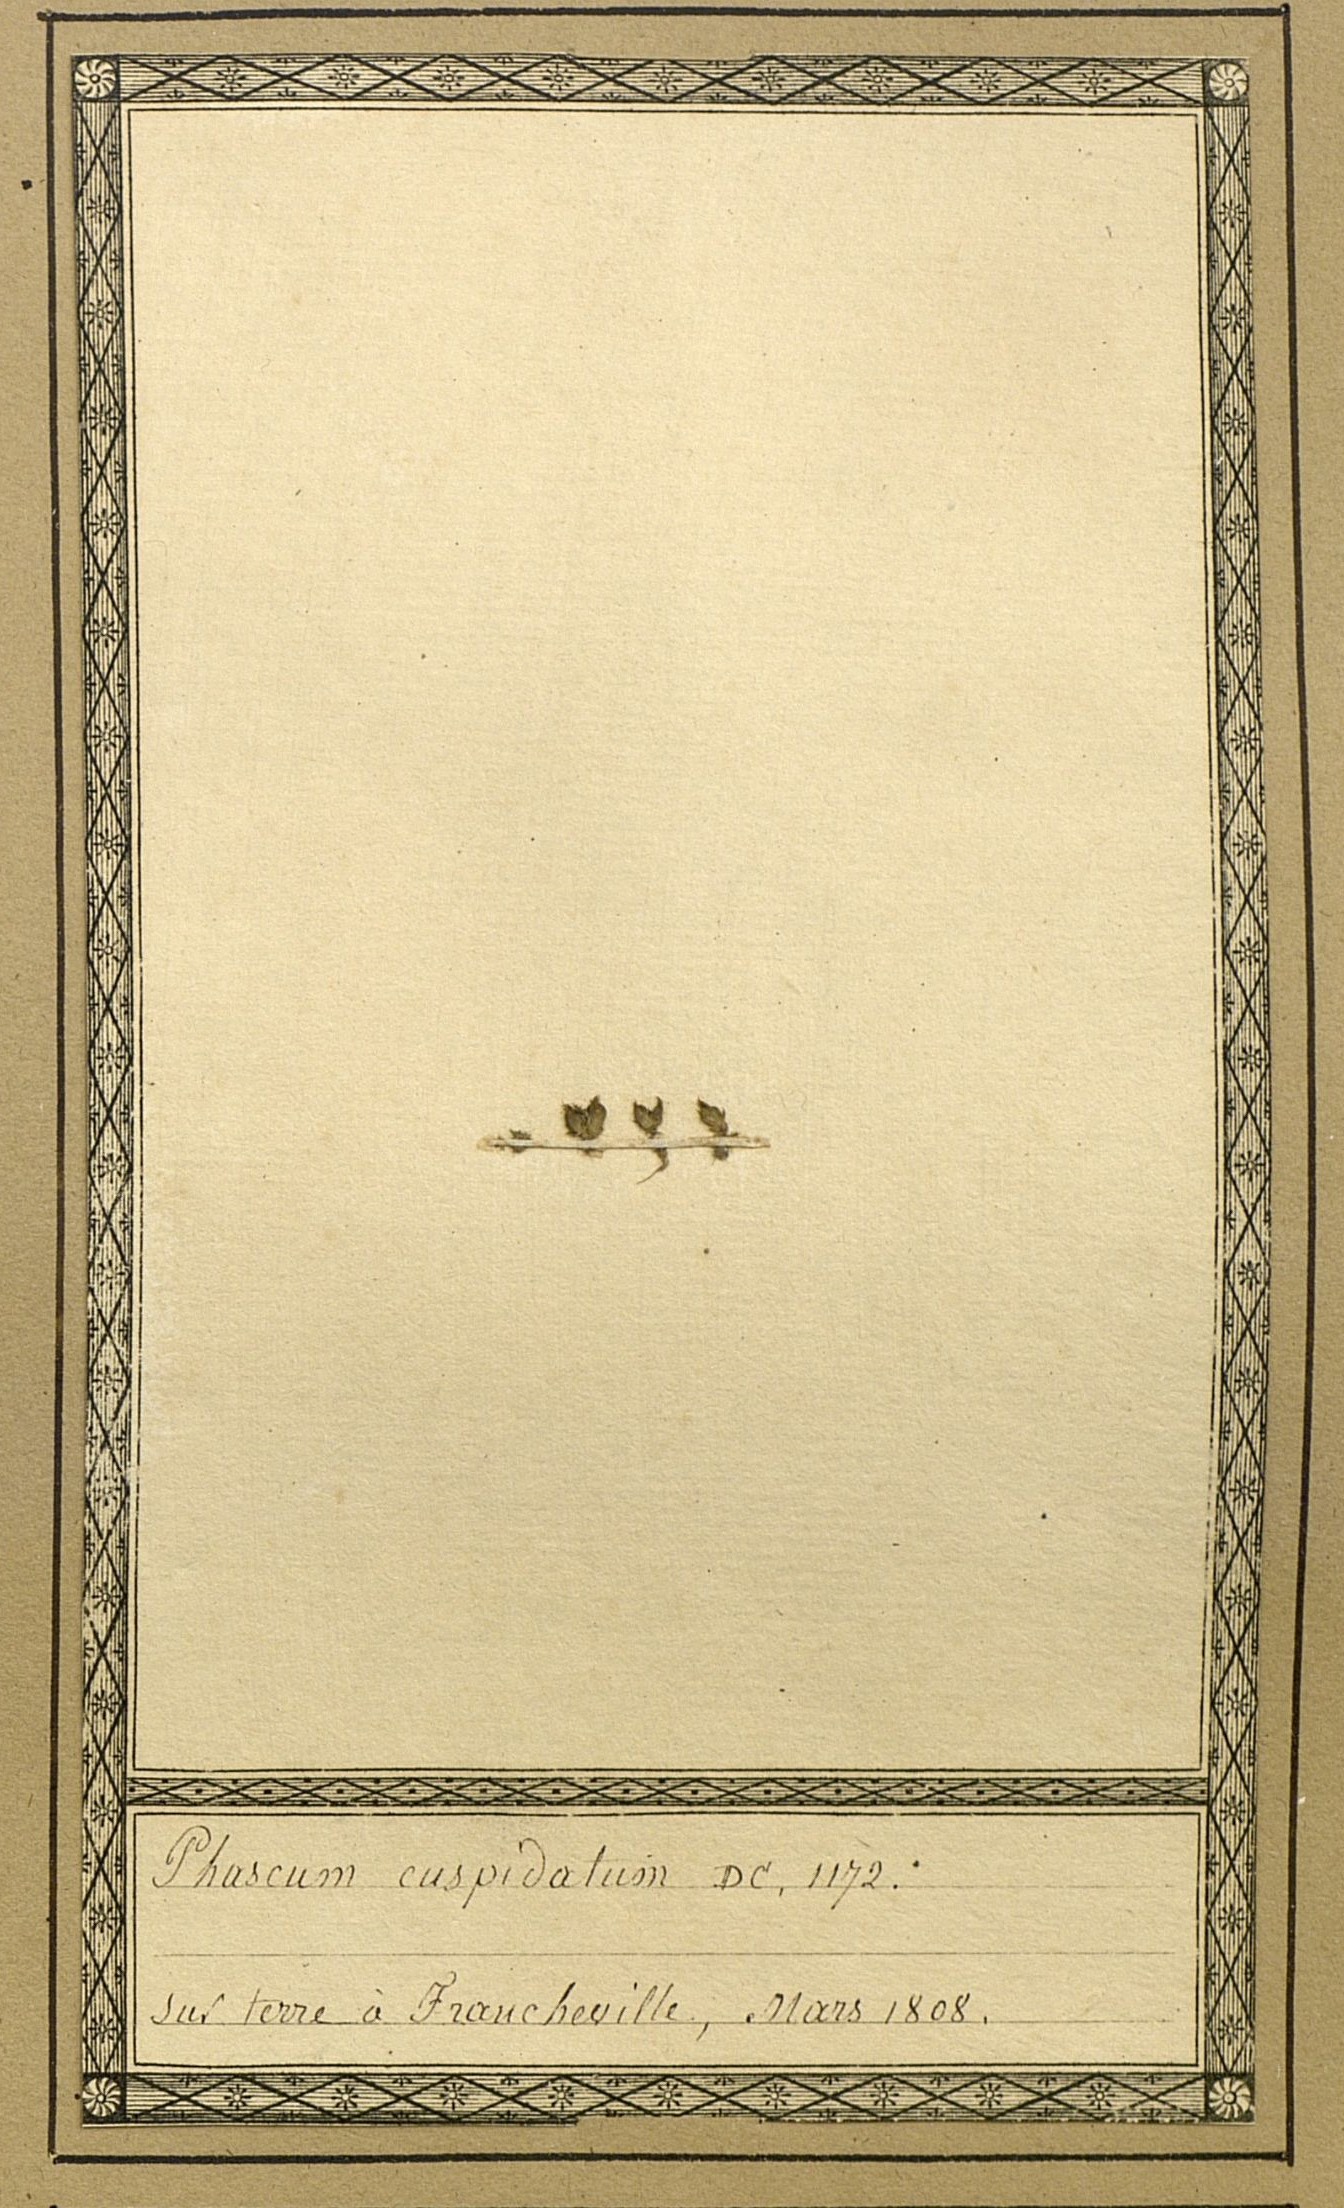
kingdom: Plantae
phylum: Bryophyta
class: Bryopsida
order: Pottiales
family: Pottiaceae
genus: Tortula
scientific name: Tortula acaulon
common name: Cuspidate earth moss
